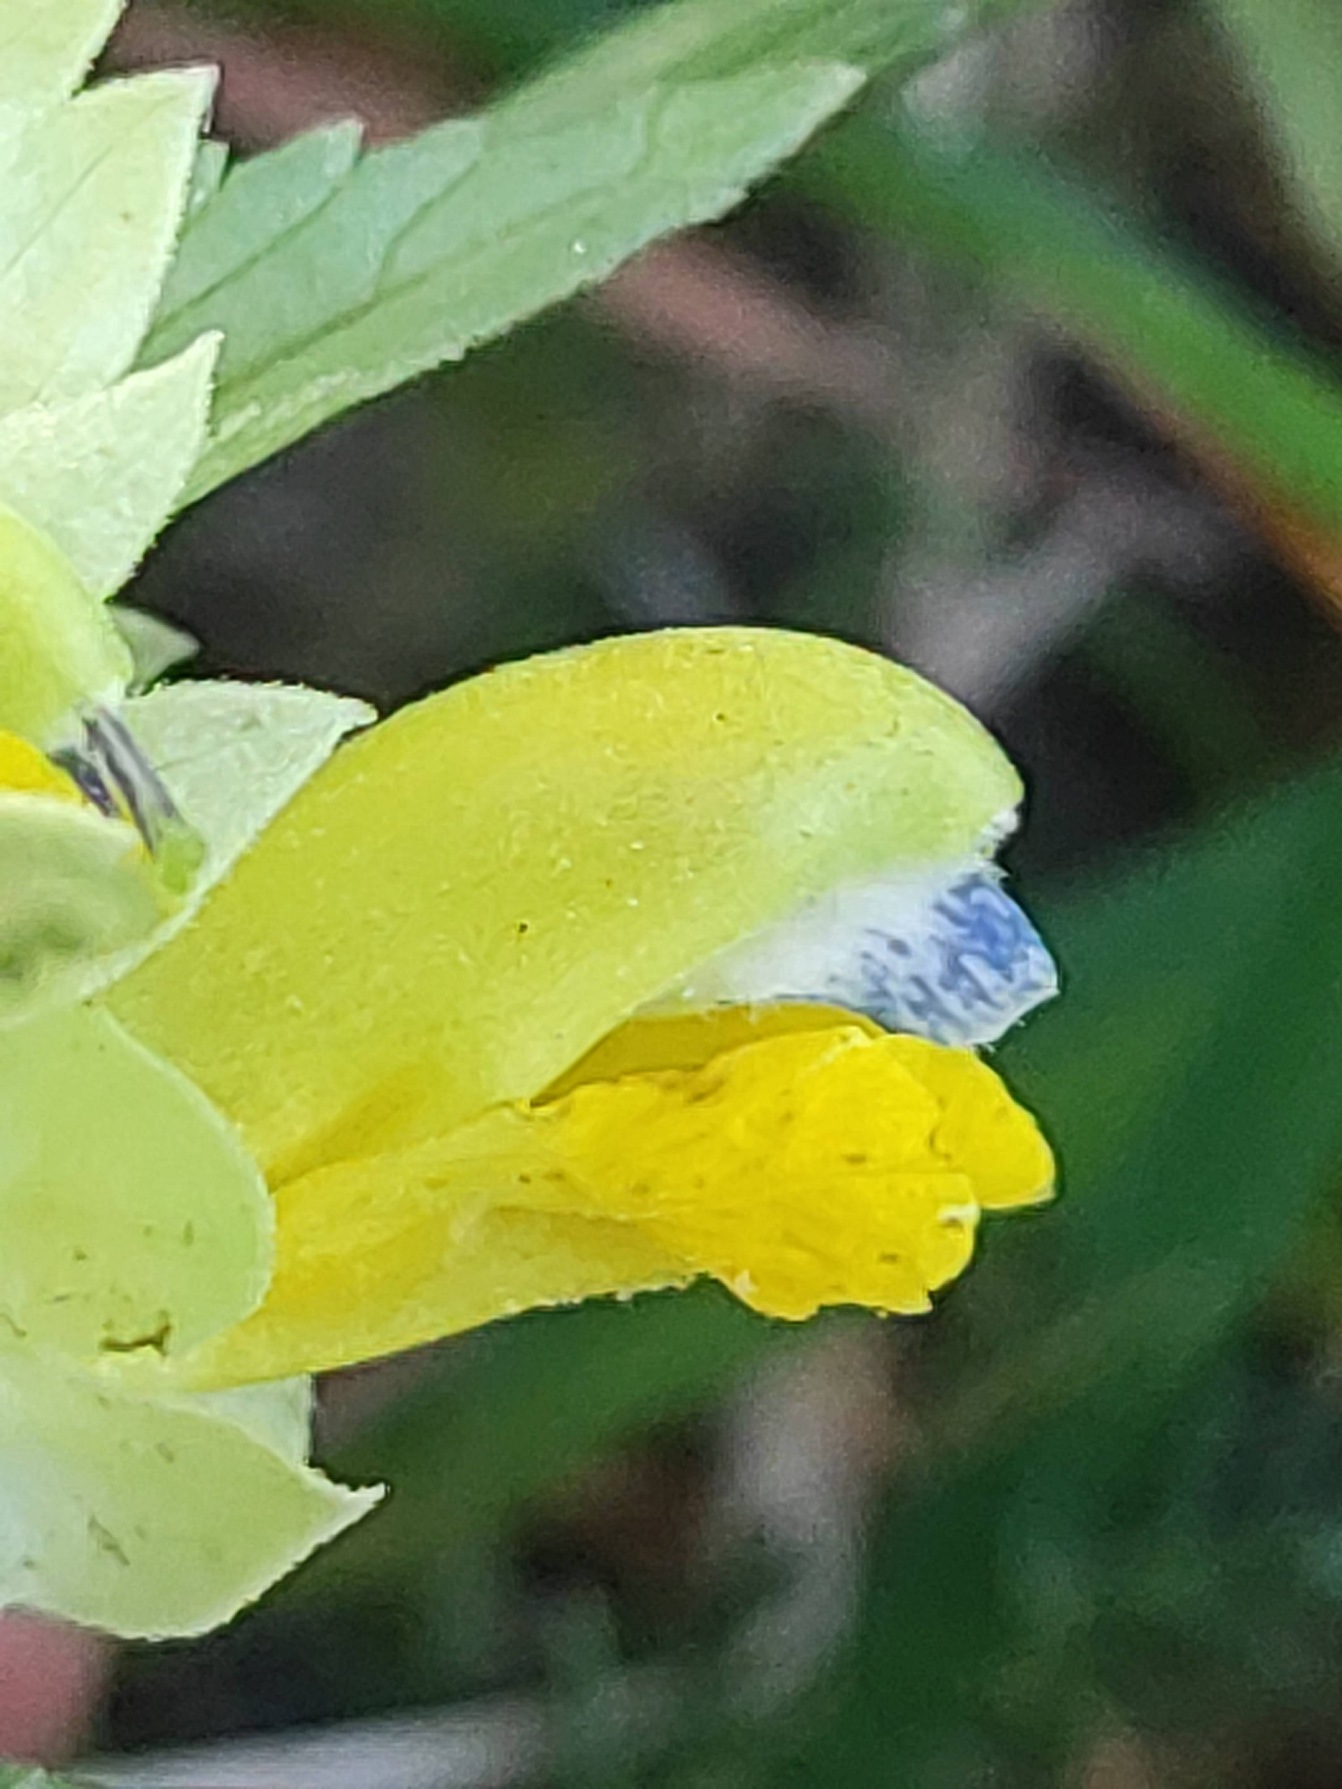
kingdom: Plantae
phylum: Tracheophyta
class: Magnoliopsida
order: Lamiales
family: Orobanchaceae
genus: Rhinanthus
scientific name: Rhinanthus
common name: Stor skjaller
